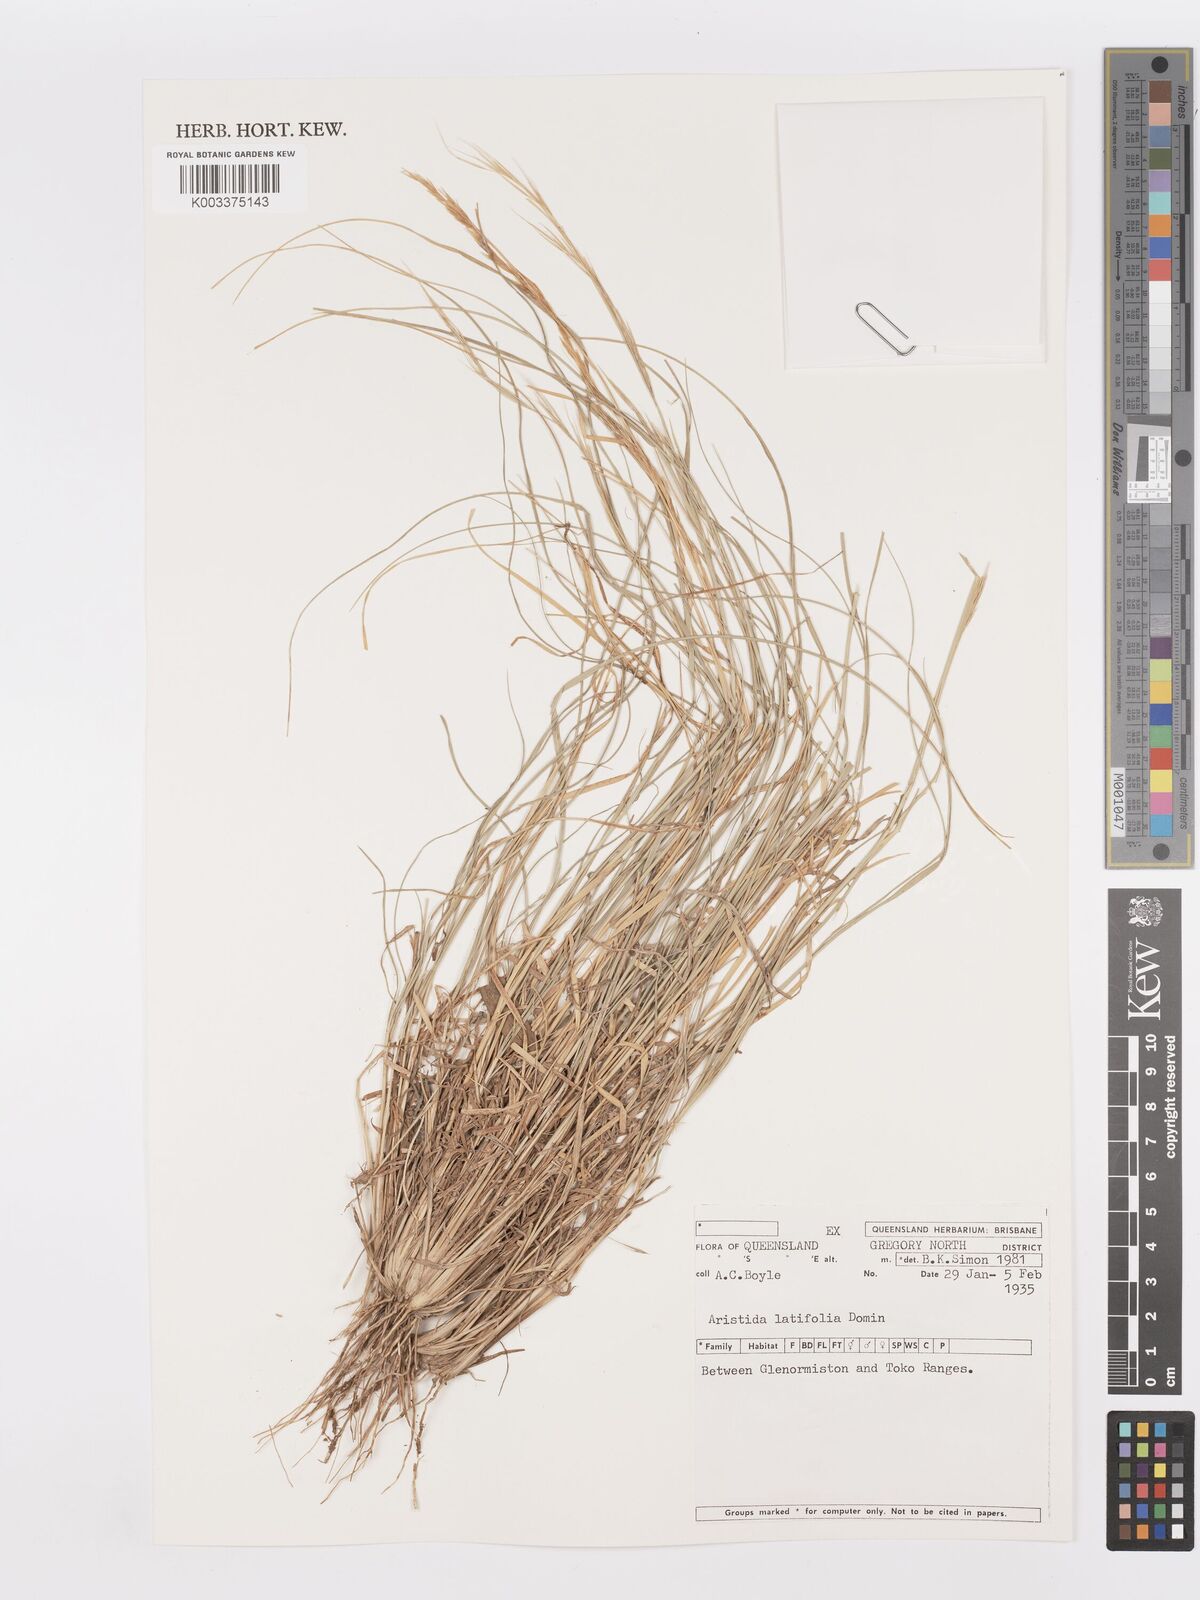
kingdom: Plantae
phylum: Tracheophyta
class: Liliopsida
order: Poales
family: Poaceae
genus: Aristida
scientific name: Aristida latifolia
